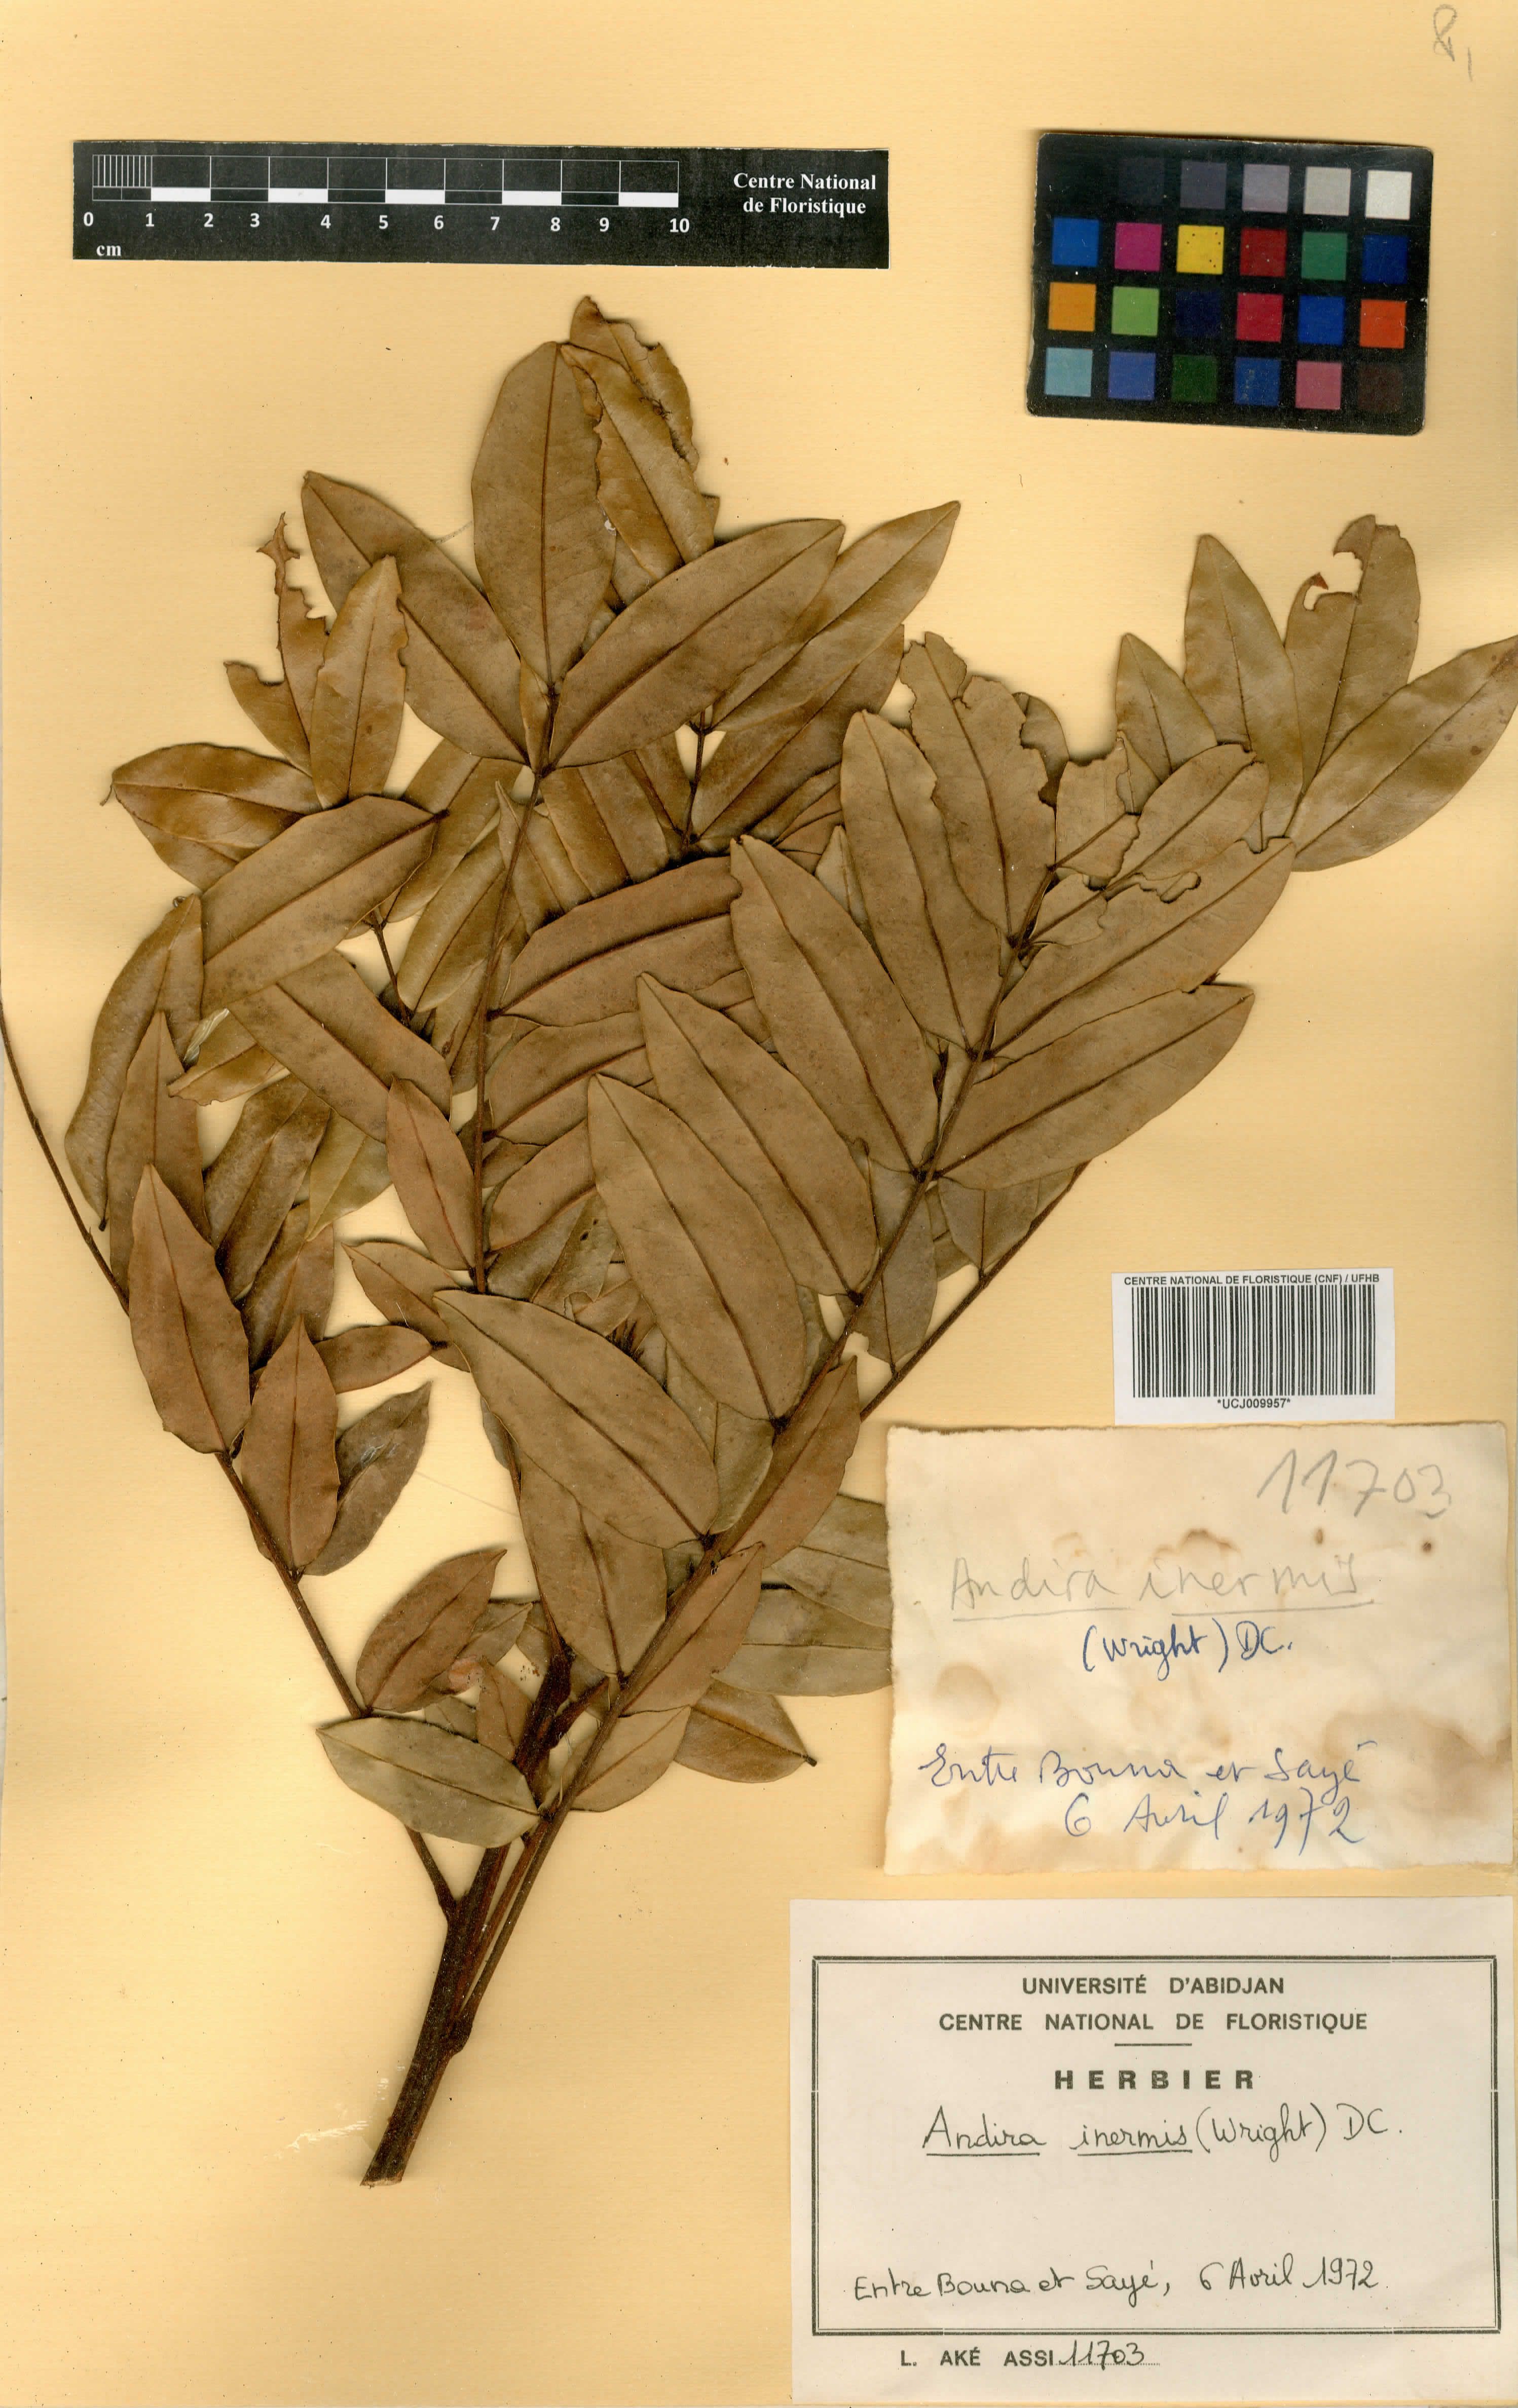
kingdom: Plantae
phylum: Tracheophyta
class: Magnoliopsida
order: Fabales
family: Fabaceae
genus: Andira
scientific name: Andira inermis
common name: Angelin
